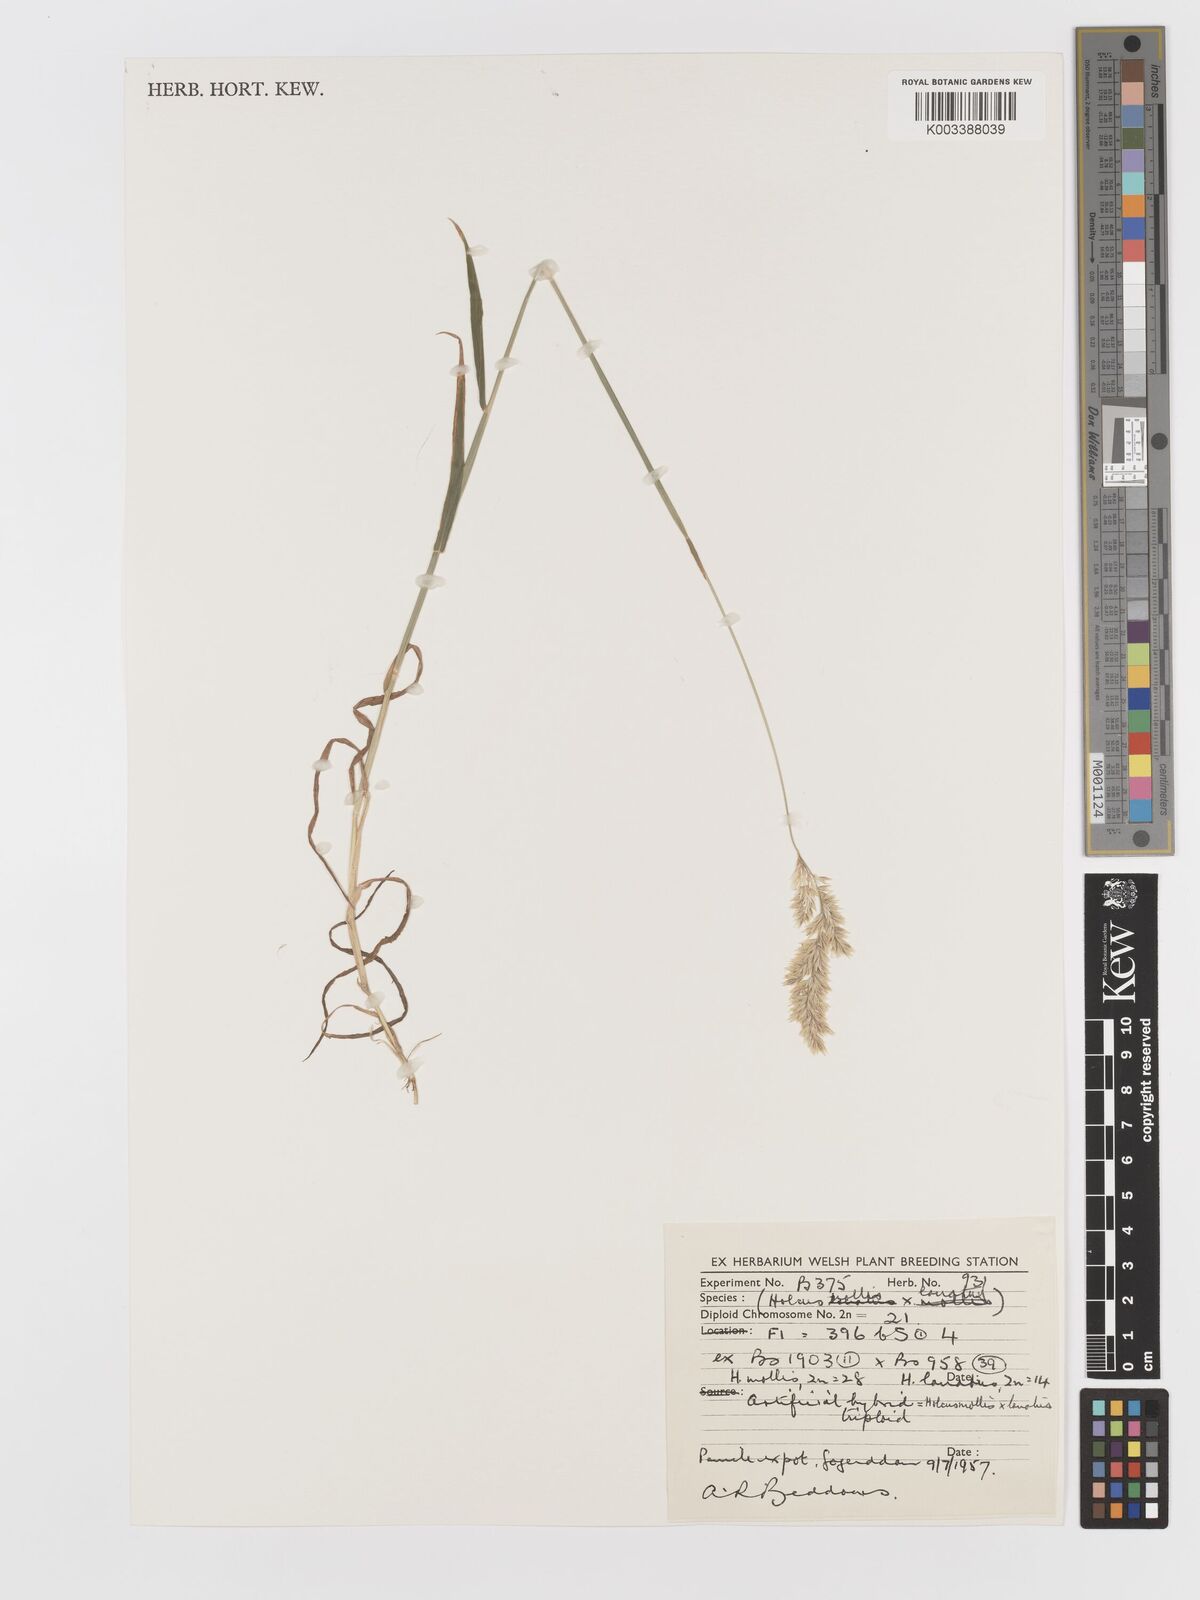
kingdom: Plantae
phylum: Tracheophyta
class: Liliopsida
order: Poales
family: Poaceae
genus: Holcus
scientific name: Holcus lanatus
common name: Yorkshire-fog
